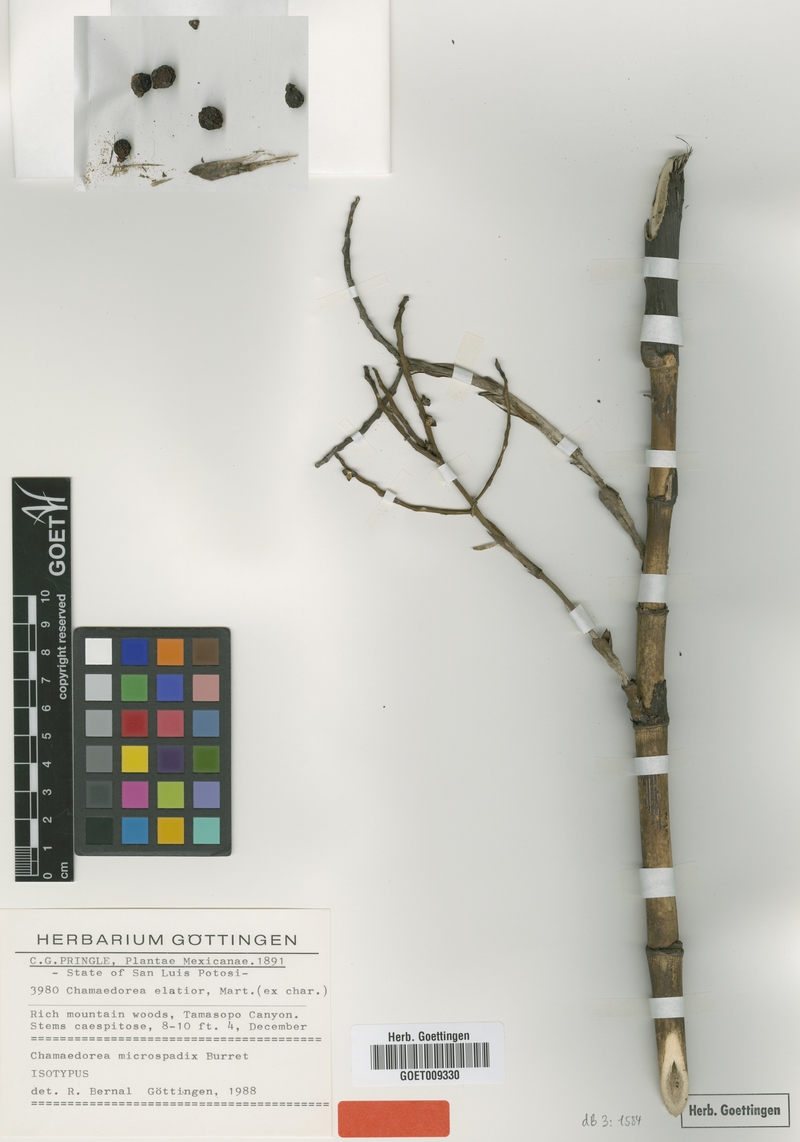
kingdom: Plantae
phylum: Tracheophyta
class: Liliopsida
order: Arecales
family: Arecaceae
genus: Chamaedorea
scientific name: Chamaedorea microspadix
